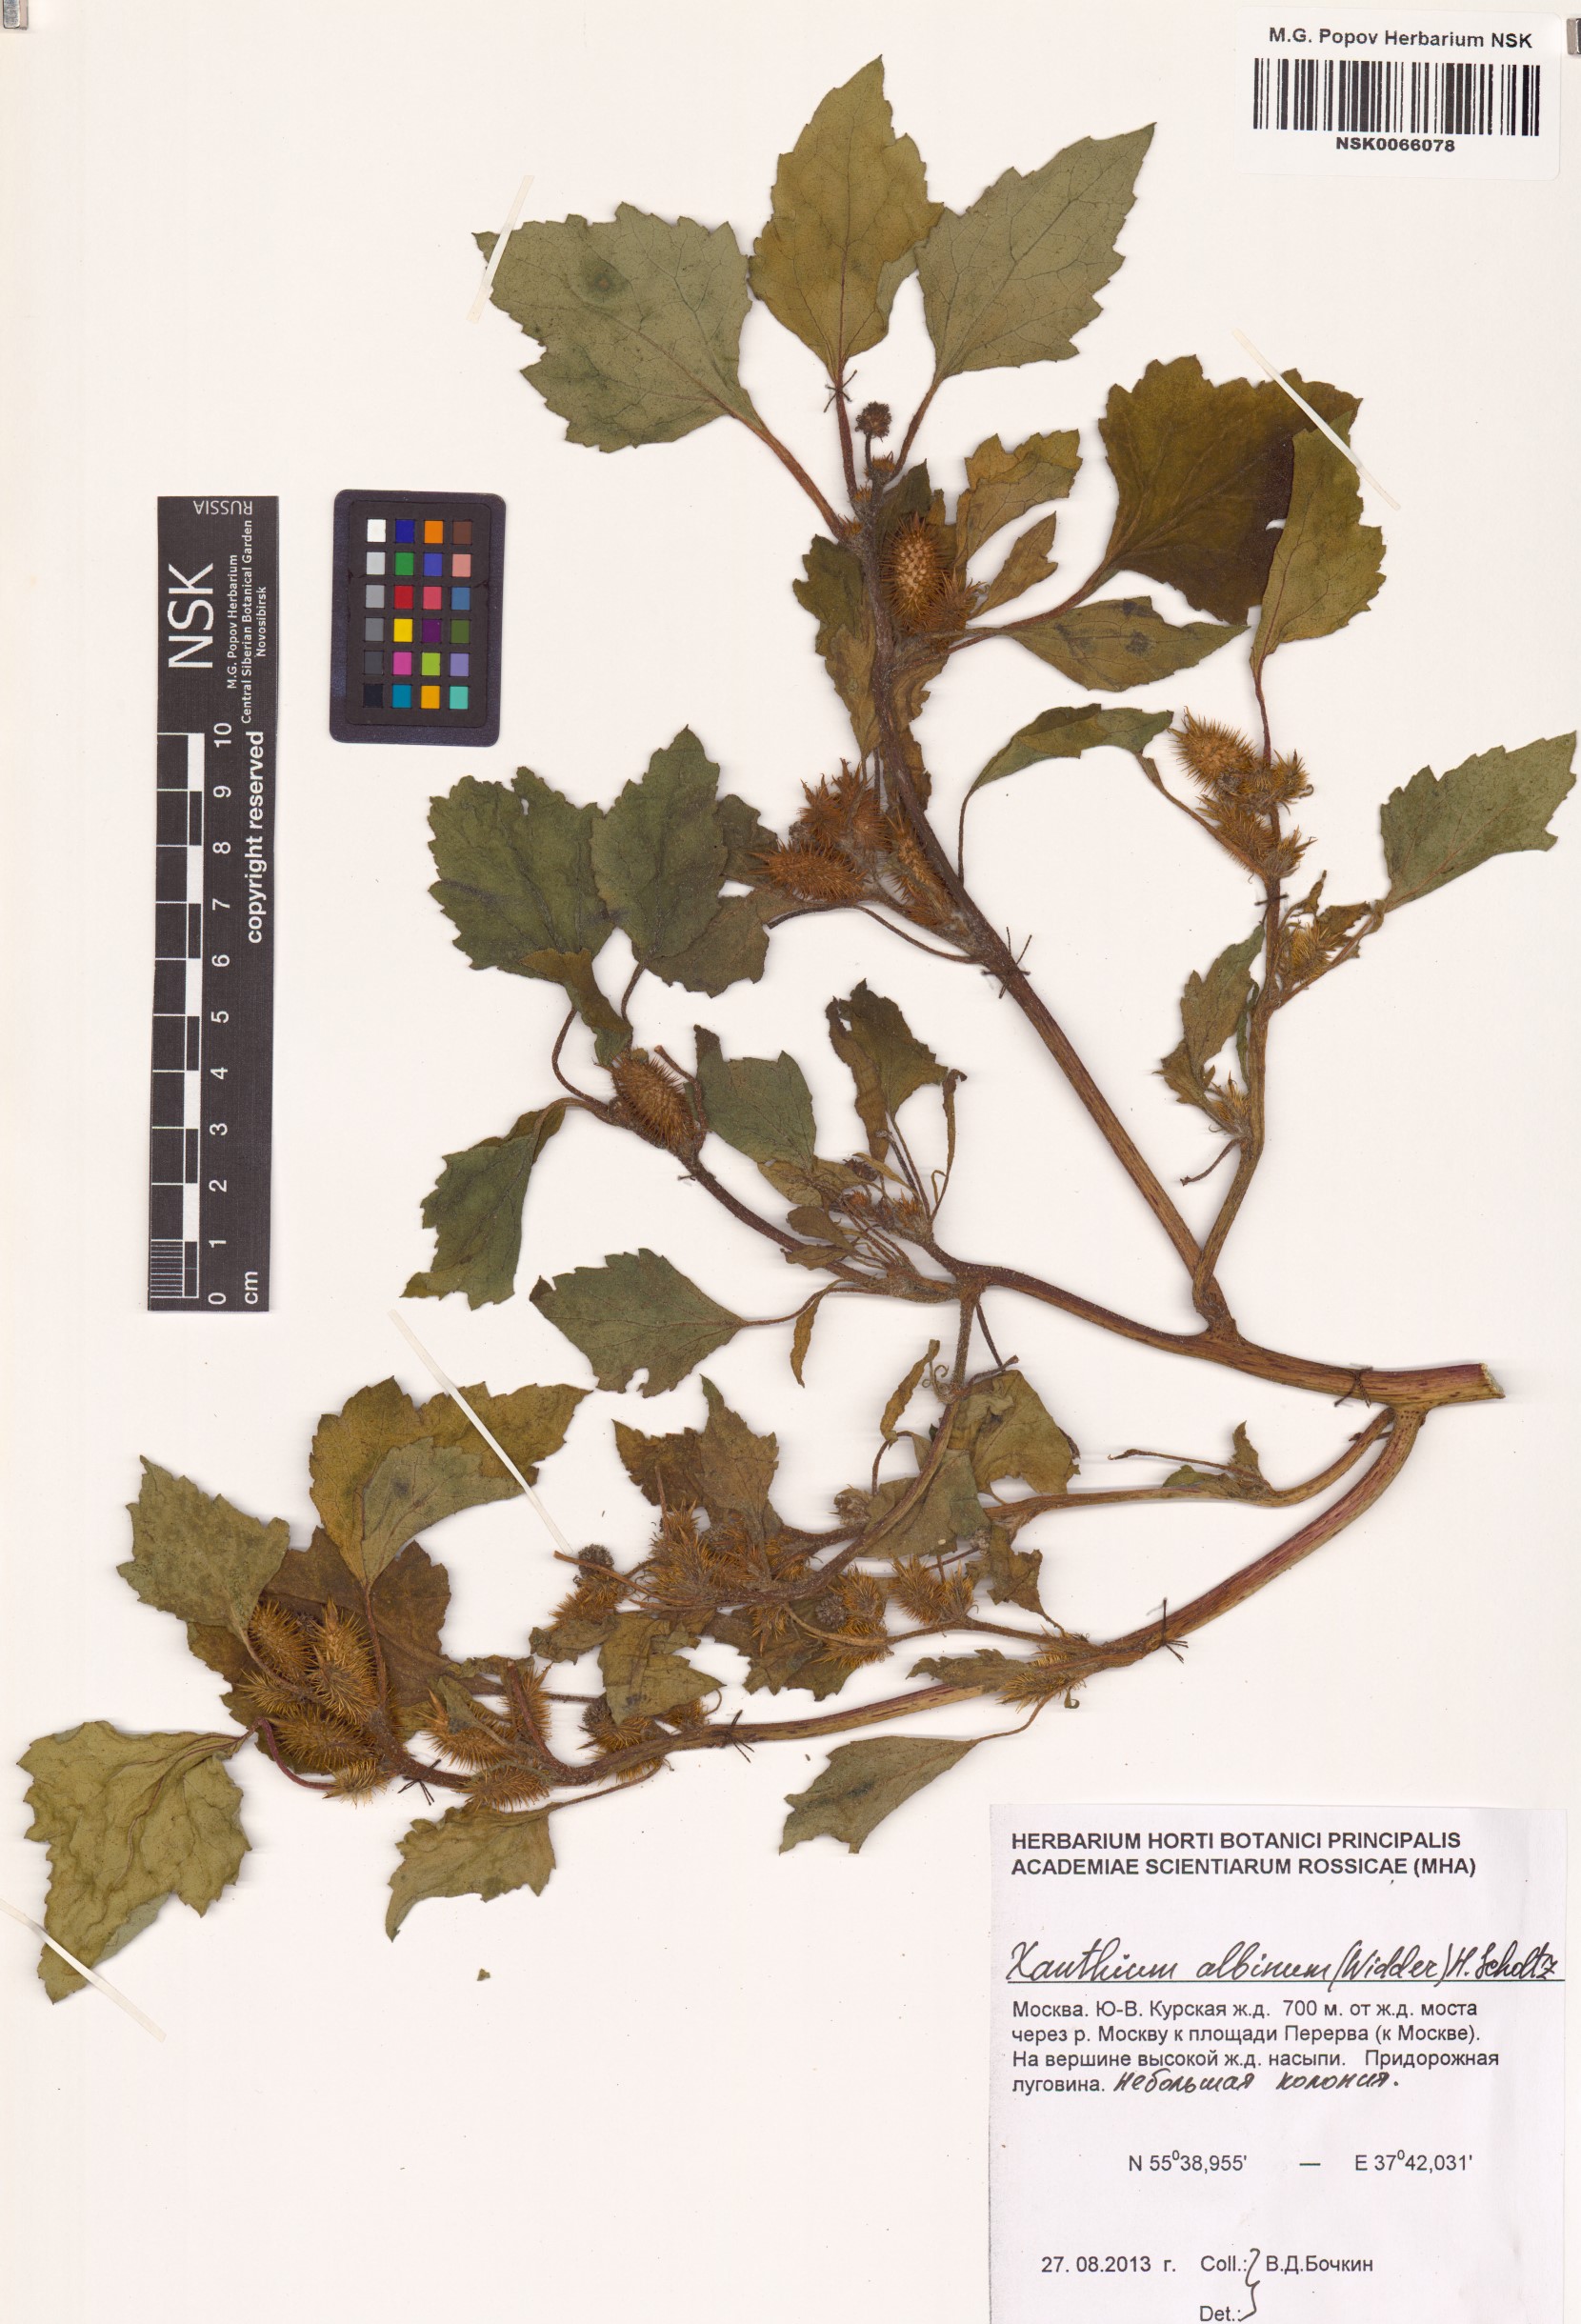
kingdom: Plantae
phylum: Tracheophyta
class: Magnoliopsida
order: Asterales
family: Asteraceae
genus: Xanthium
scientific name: Xanthium orientale
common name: Californian burr
